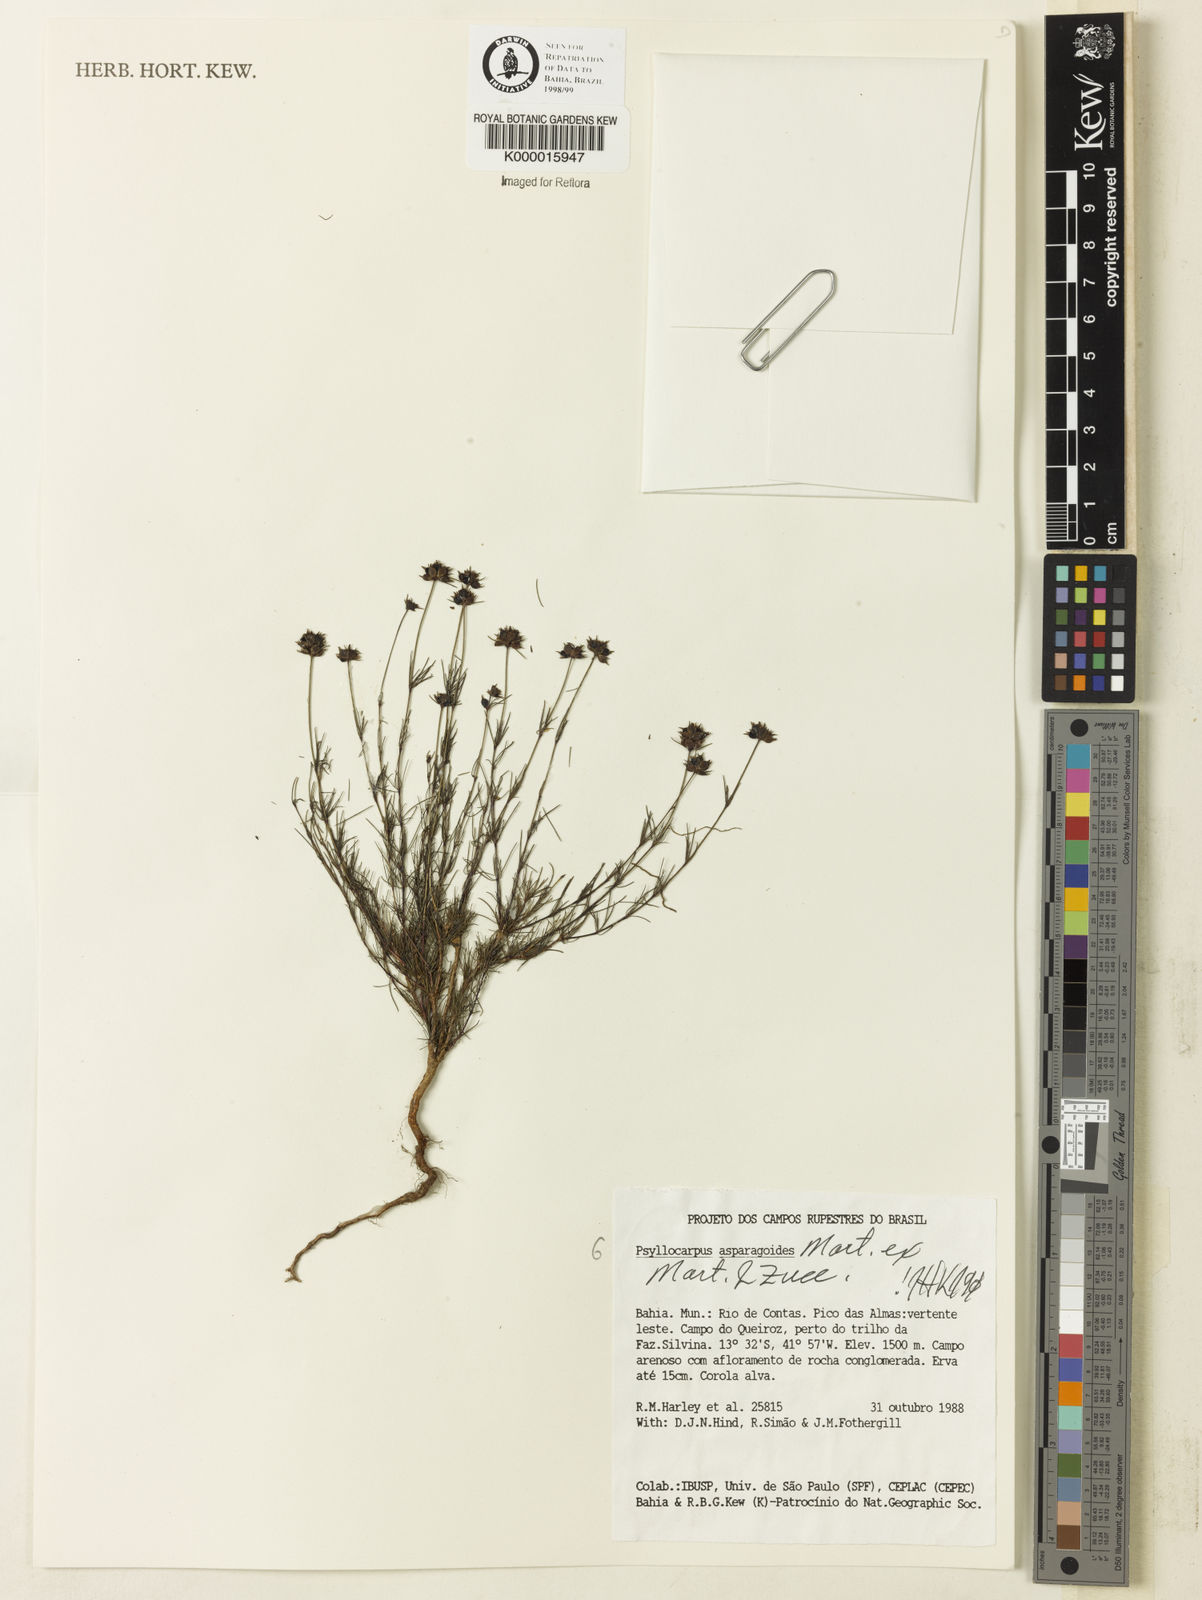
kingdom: Plantae
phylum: Tracheophyta
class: Magnoliopsida
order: Gentianales
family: Rubiaceae
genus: Psyllocarpus
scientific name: Psyllocarpus asparagoides
